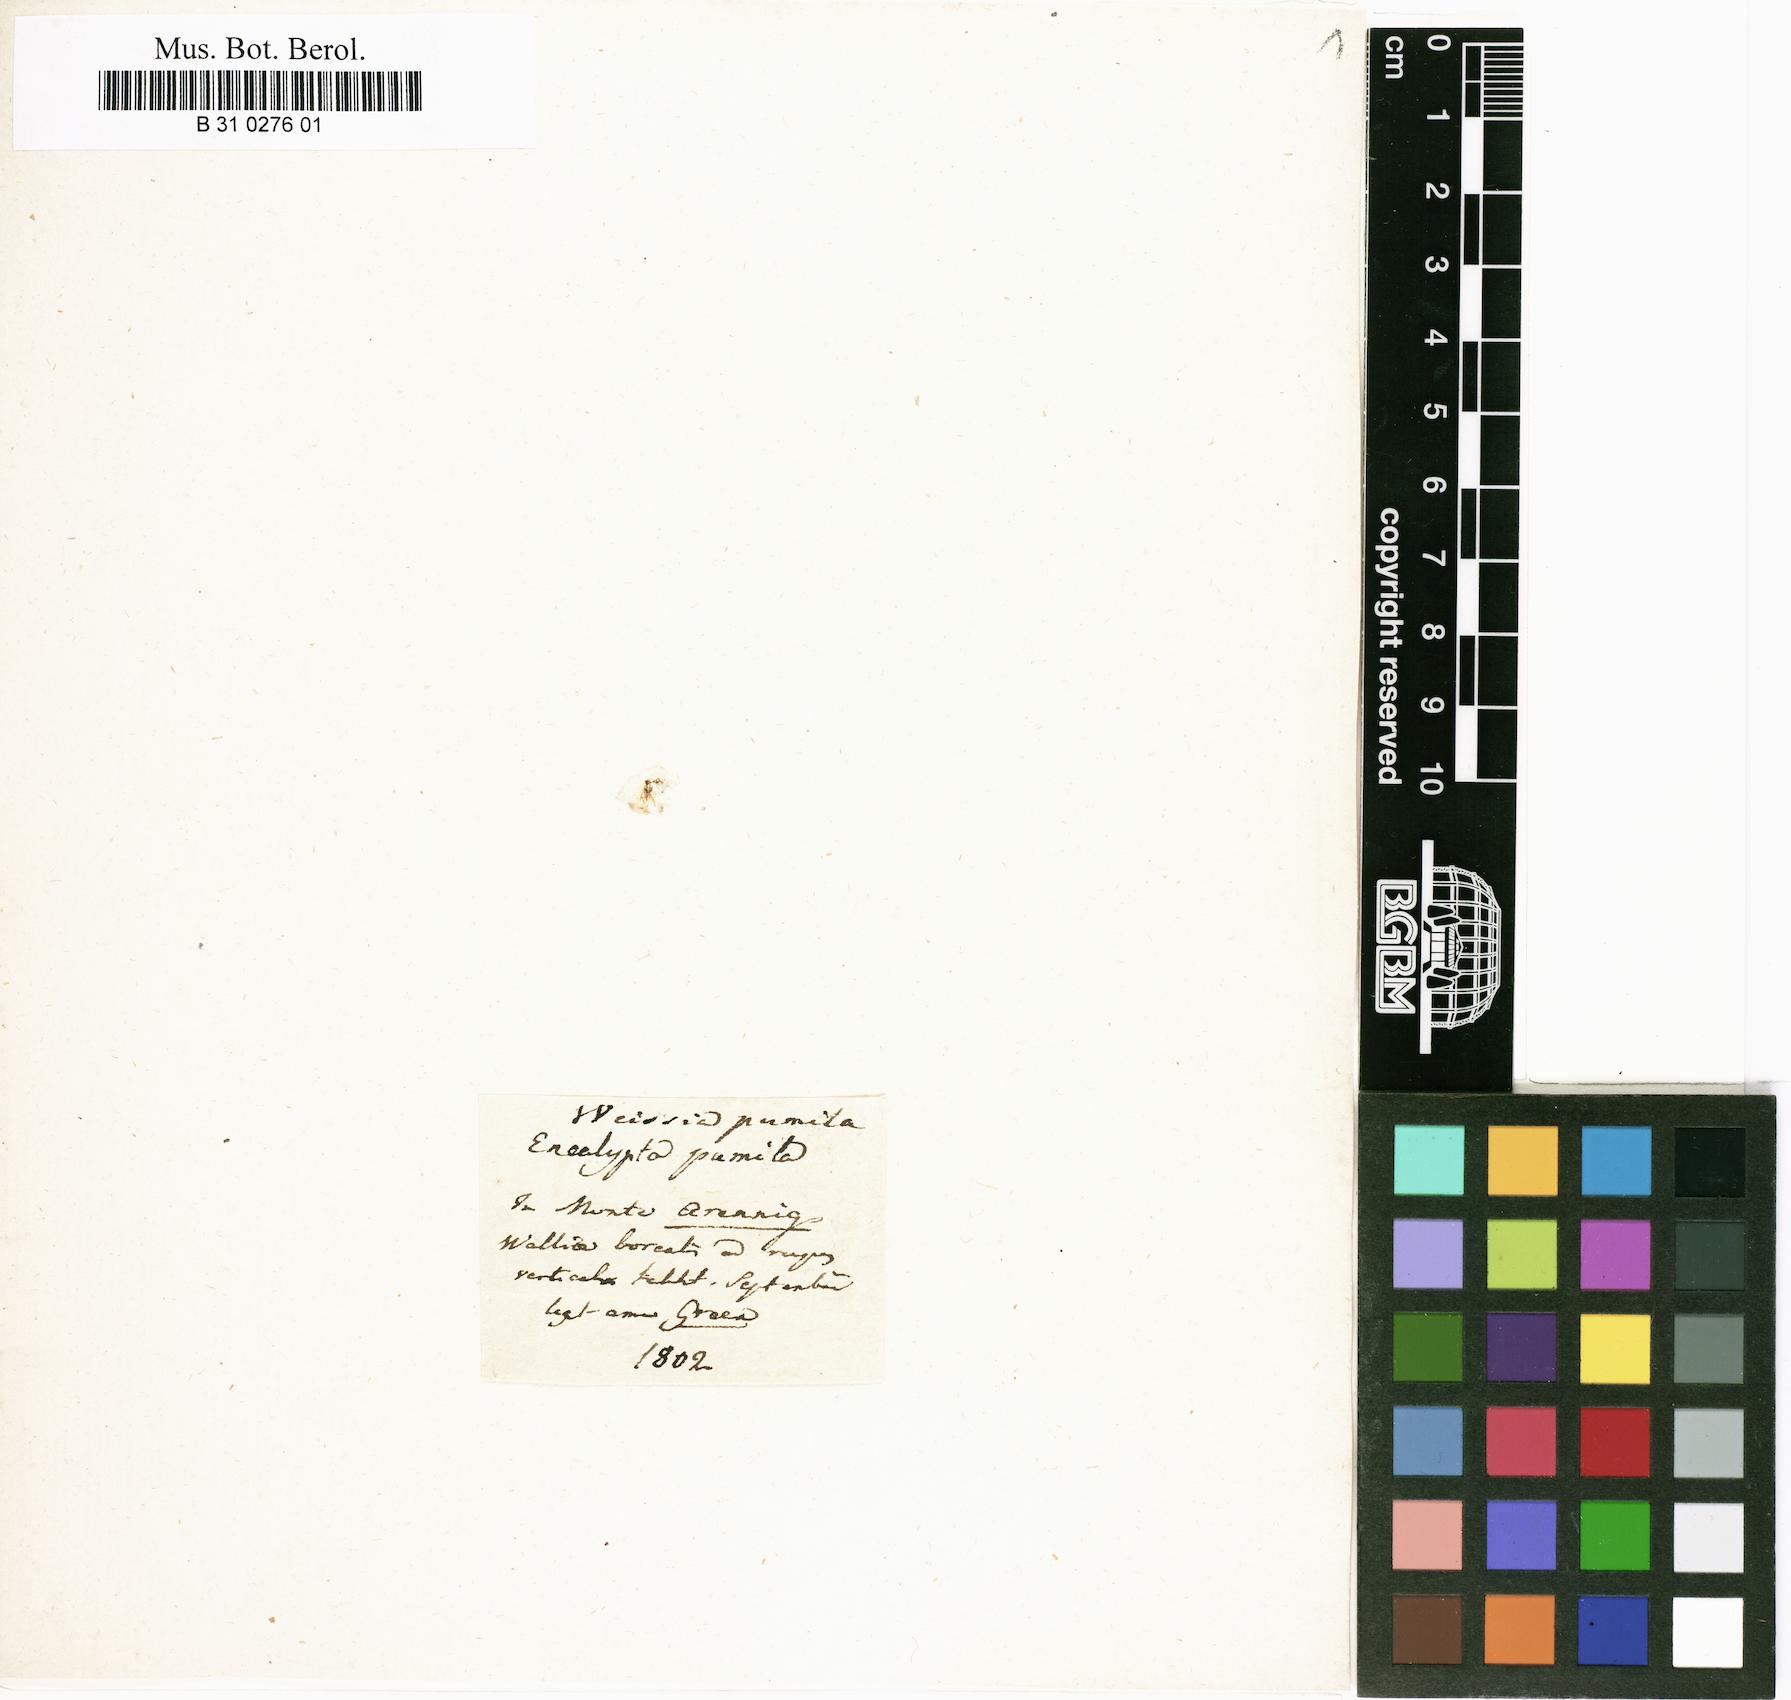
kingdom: Plantae
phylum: Bryophyta
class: Bryopsida
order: Dicranales
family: Rhabdoweisiaceae
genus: Rhabdoweisia
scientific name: Rhabdoweisia fugax
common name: Dwarf streak-moss
